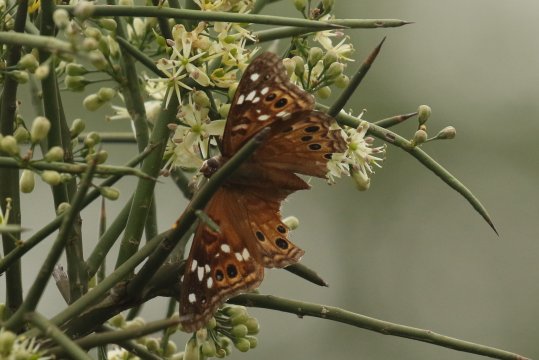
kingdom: Animalia
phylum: Arthropoda
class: Insecta
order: Lepidoptera
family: Nymphalidae
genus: Asterocampa
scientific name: Asterocampa leilia
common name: Empress Leilia
